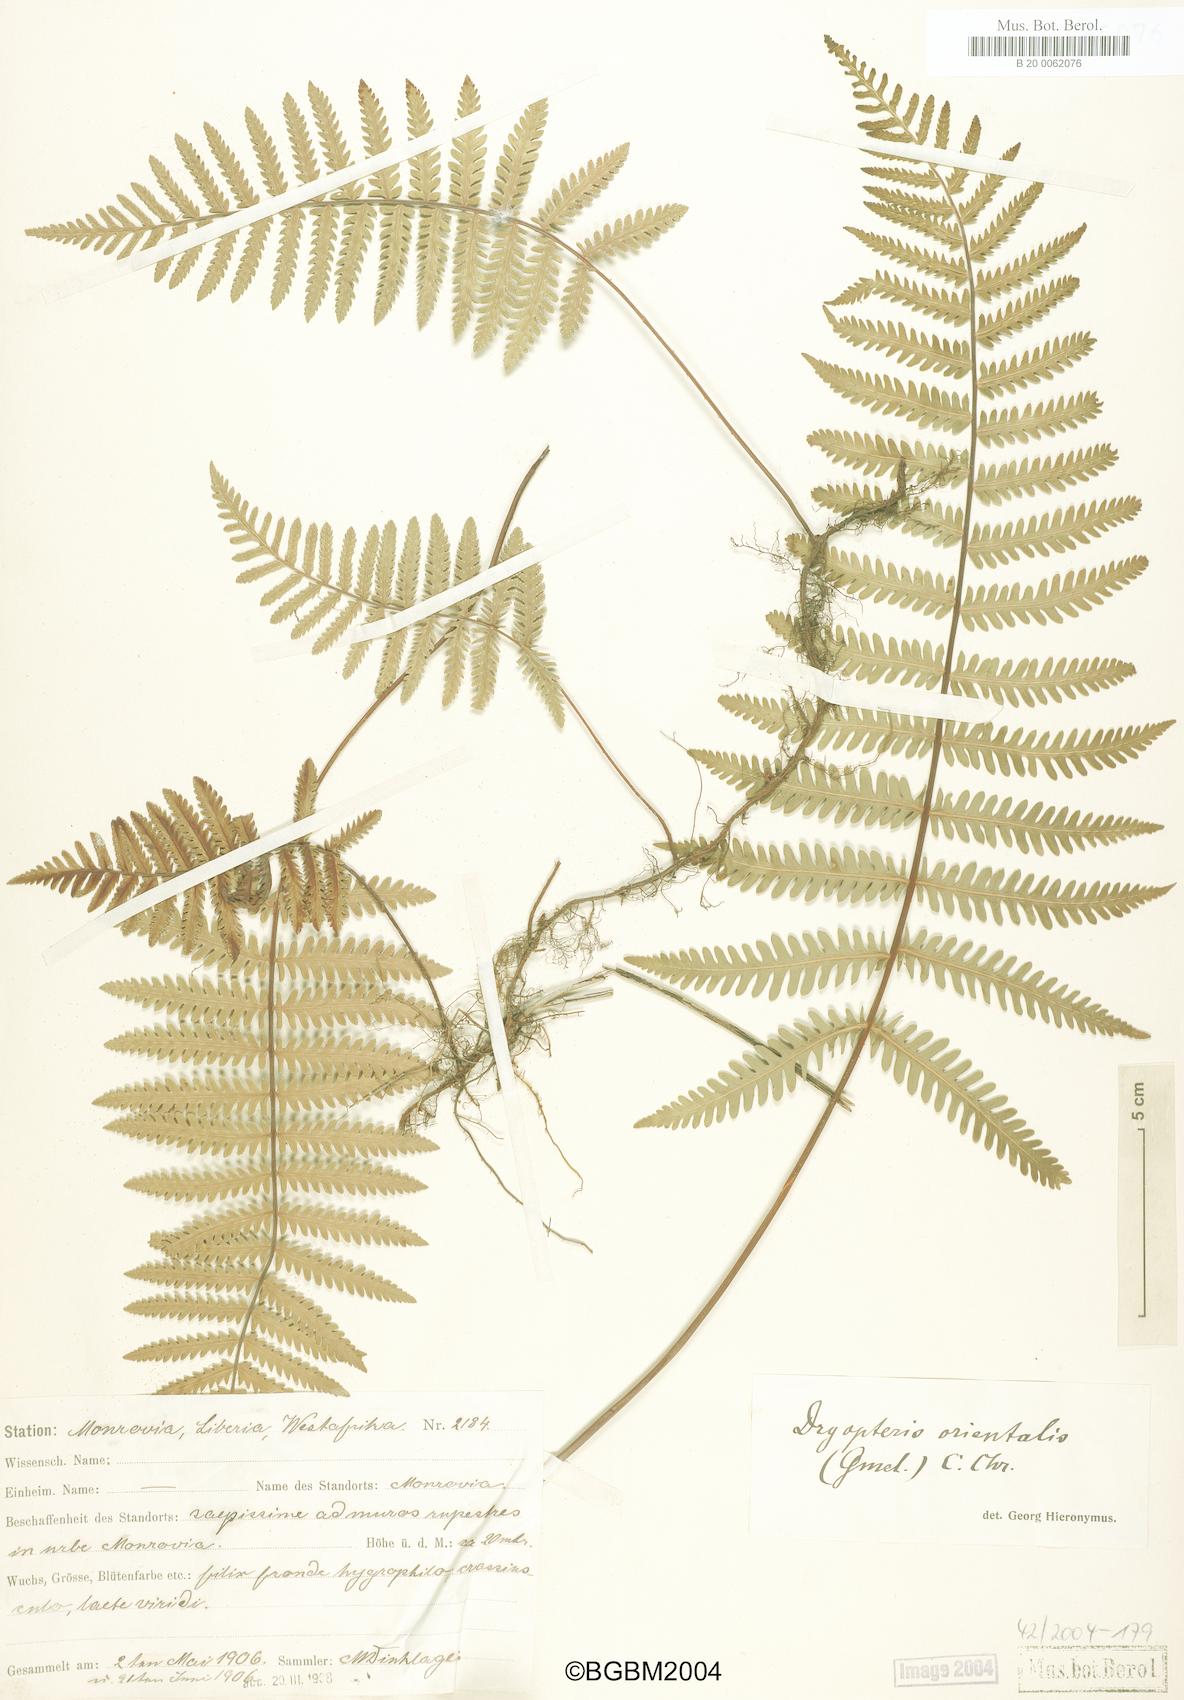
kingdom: Plantae
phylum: Tracheophyta
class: Polypodiopsida
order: Polypodiales
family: Tectariaceae
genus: Arthropteris
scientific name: Arthropteris orientalis
